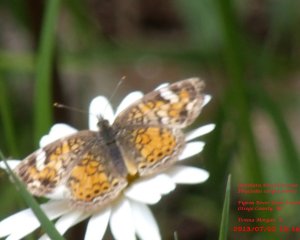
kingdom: Animalia
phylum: Arthropoda
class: Insecta
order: Lepidoptera
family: Nymphalidae
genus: Phyciodes
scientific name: Phyciodes tharos
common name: Northern Crescent
